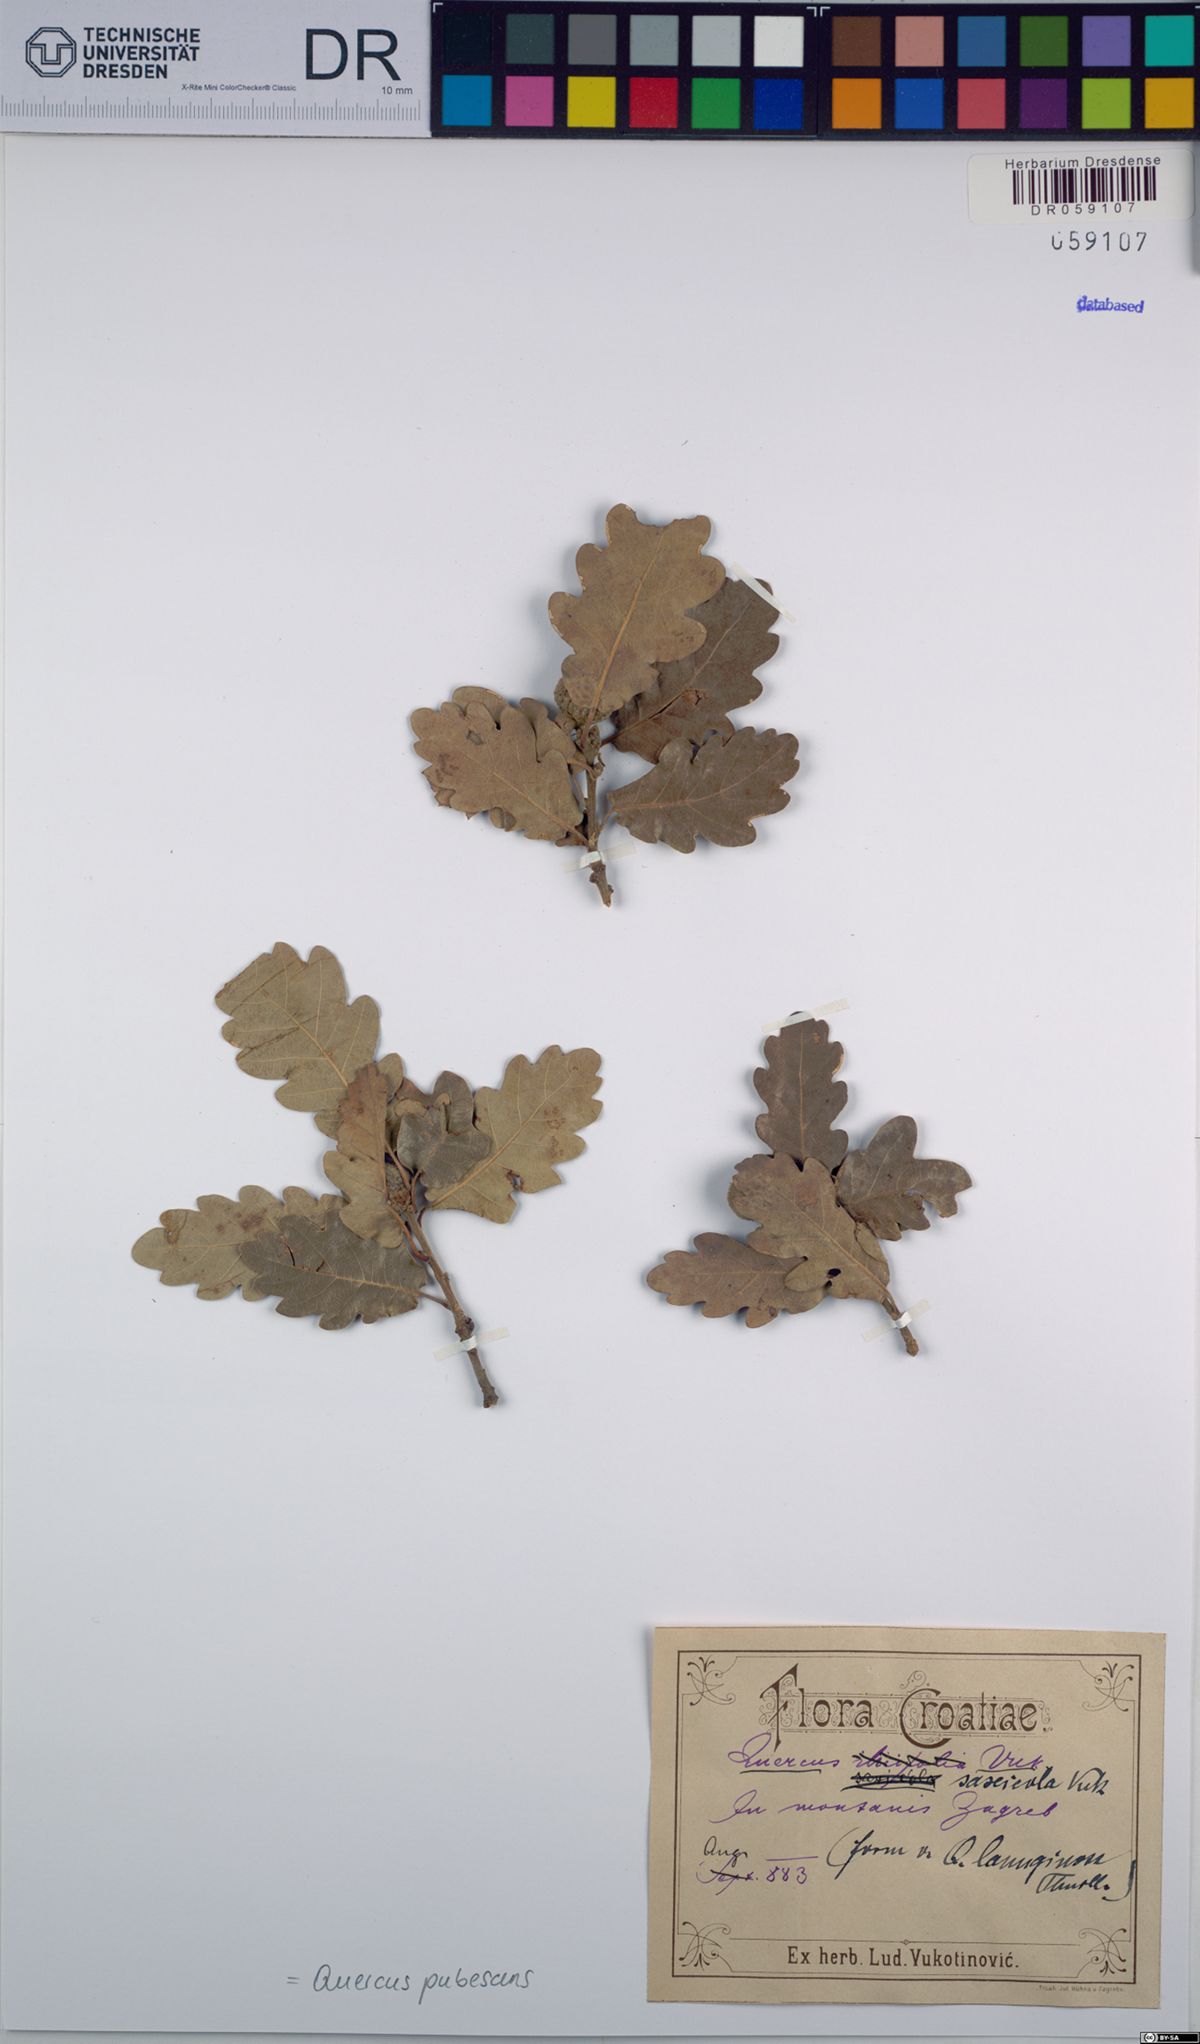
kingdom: Plantae
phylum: Tracheophyta
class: Magnoliopsida
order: Fagales
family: Fagaceae
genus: Quercus
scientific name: Quercus pubescens
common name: Downy oak
